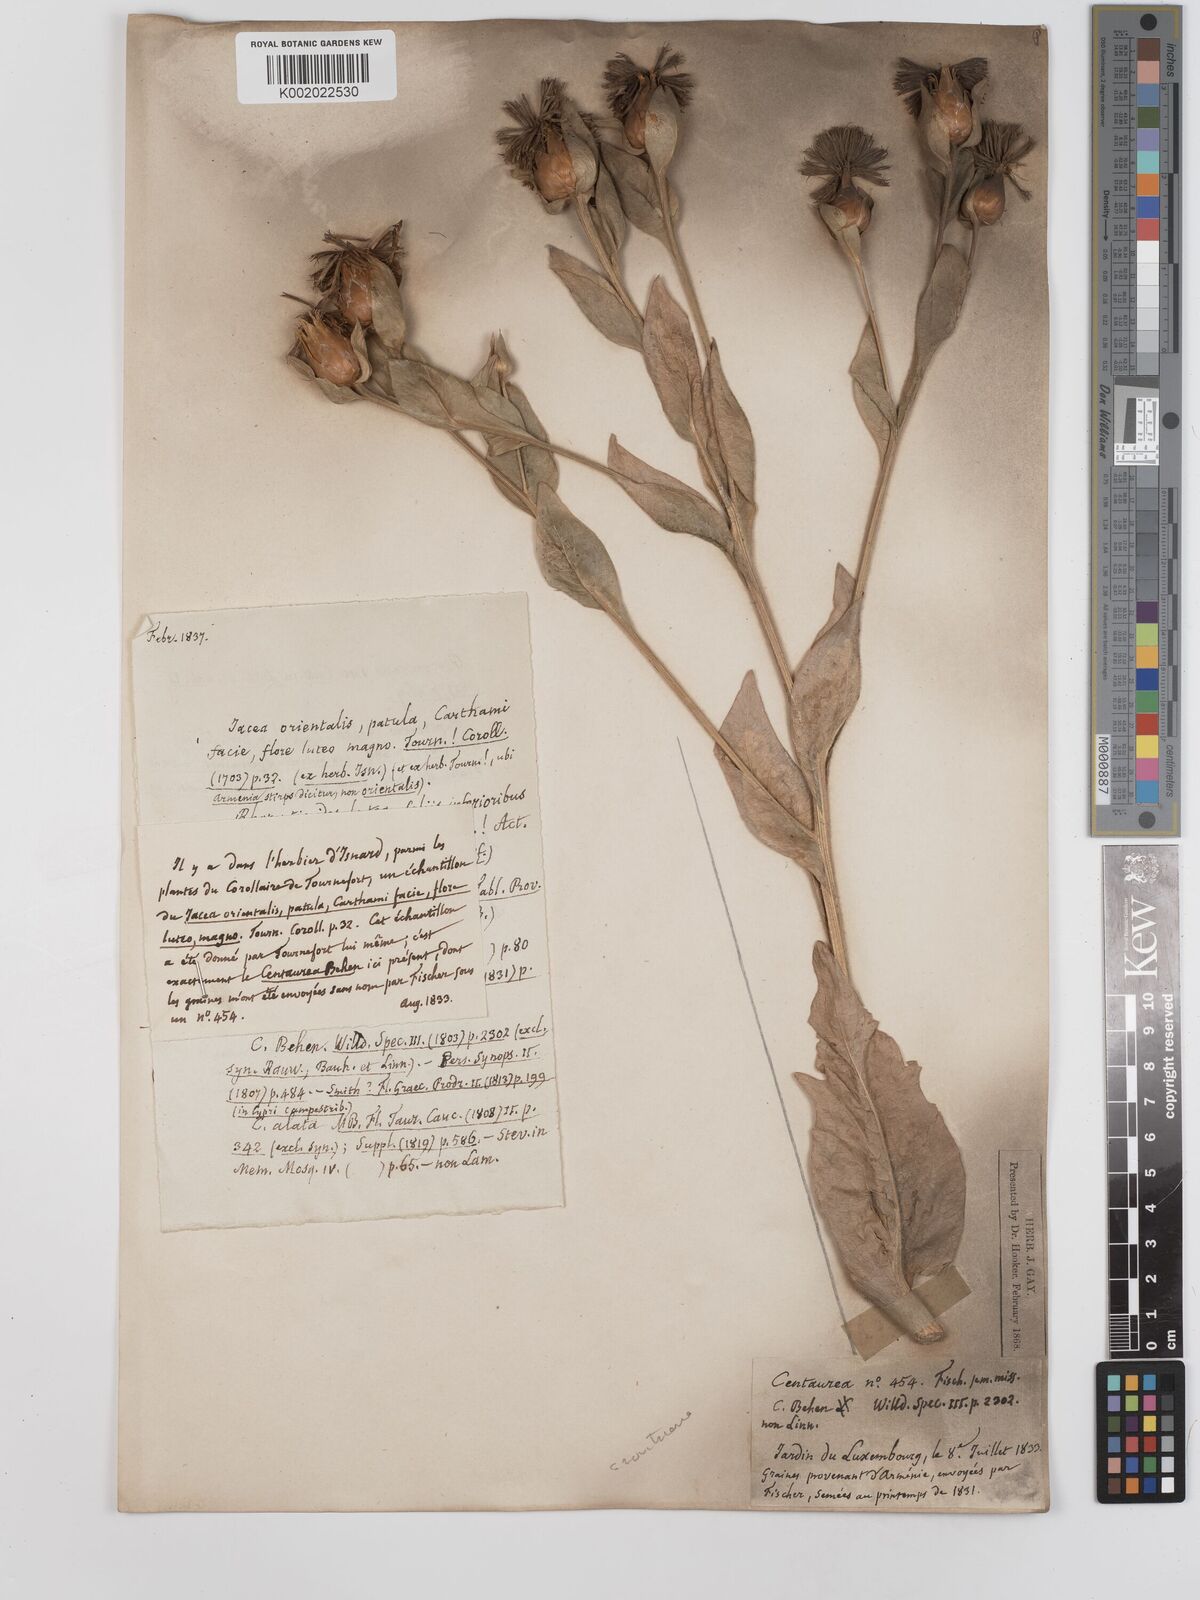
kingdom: Plantae
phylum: Tracheophyta
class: Magnoliopsida
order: Asterales
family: Asteraceae
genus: Centaurea
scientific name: Centaurea polypodiifolia
